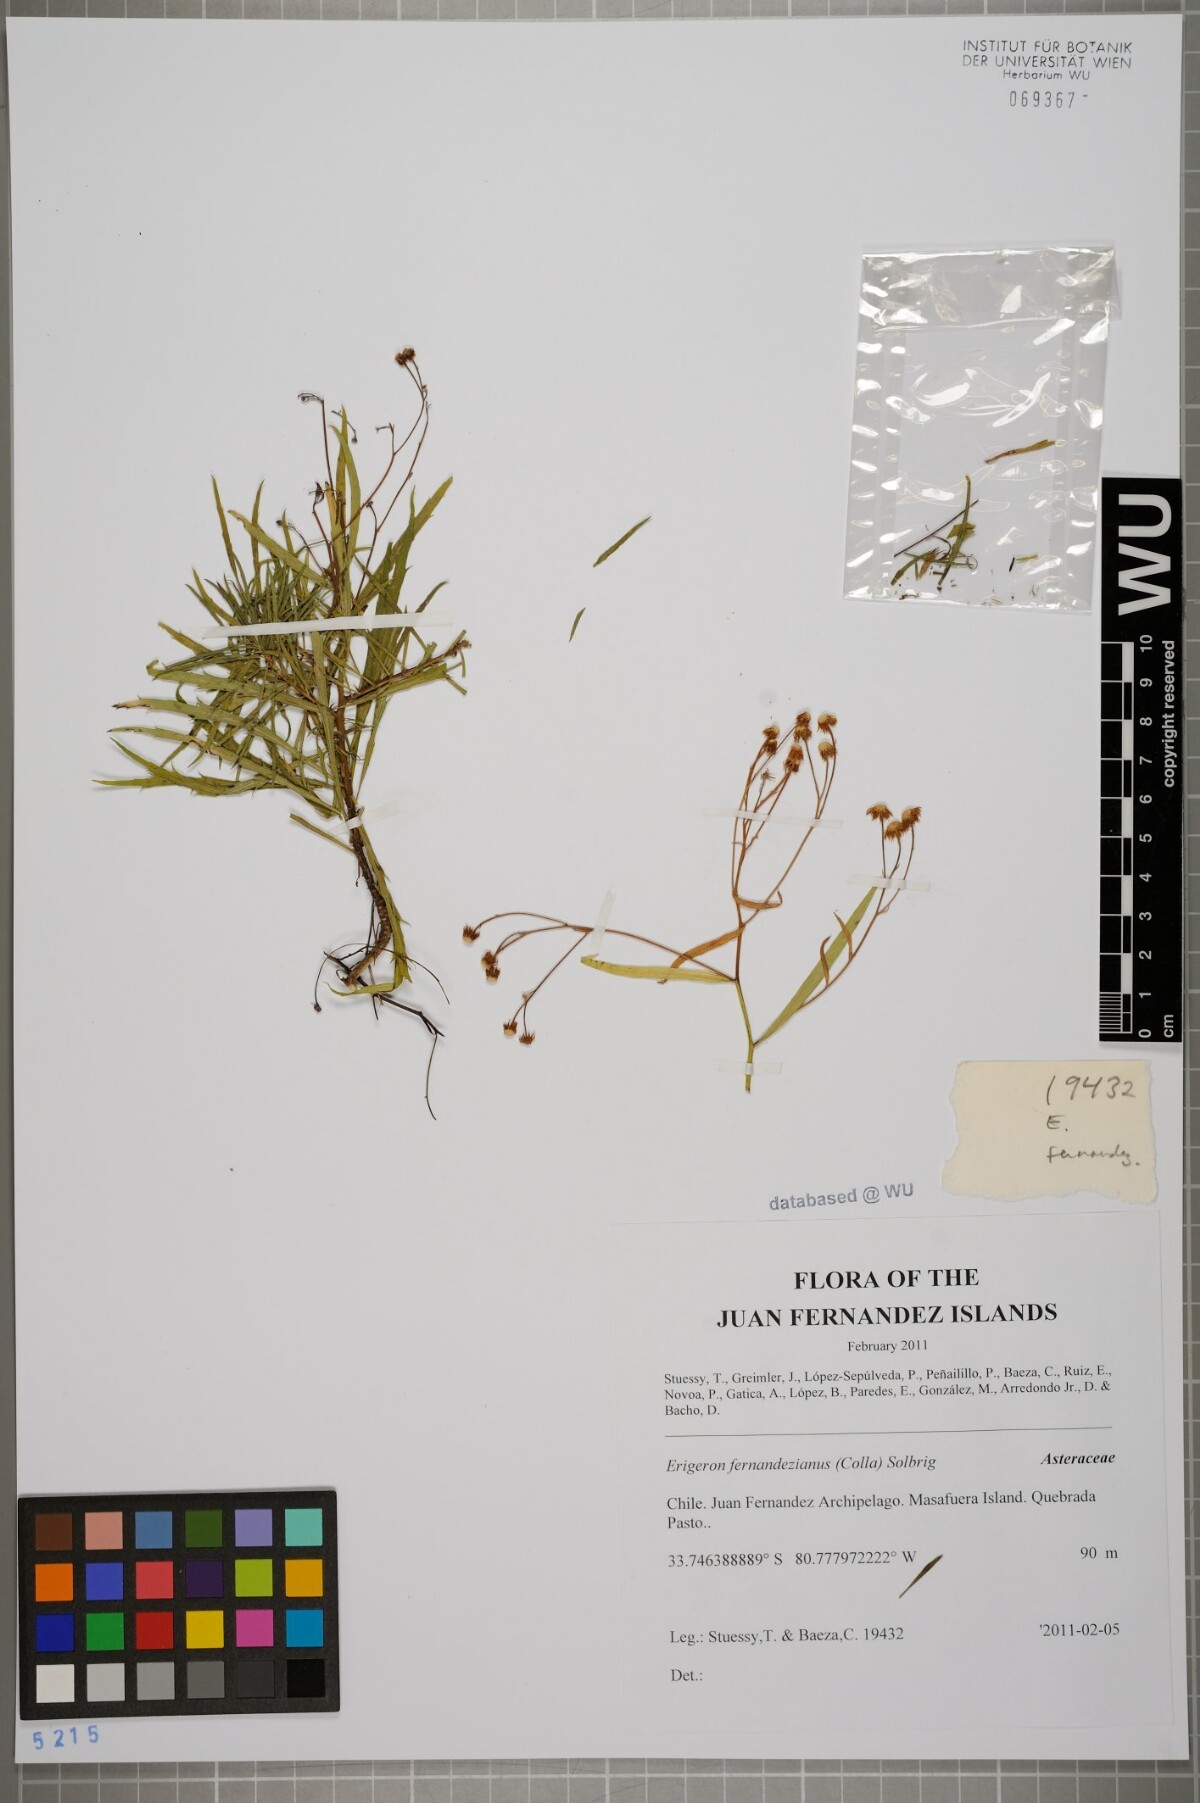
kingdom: Plantae
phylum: Tracheophyta
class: Magnoliopsida
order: Asterales
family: Asteraceae
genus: Erigeron
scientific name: Erigeron fernandezianus
